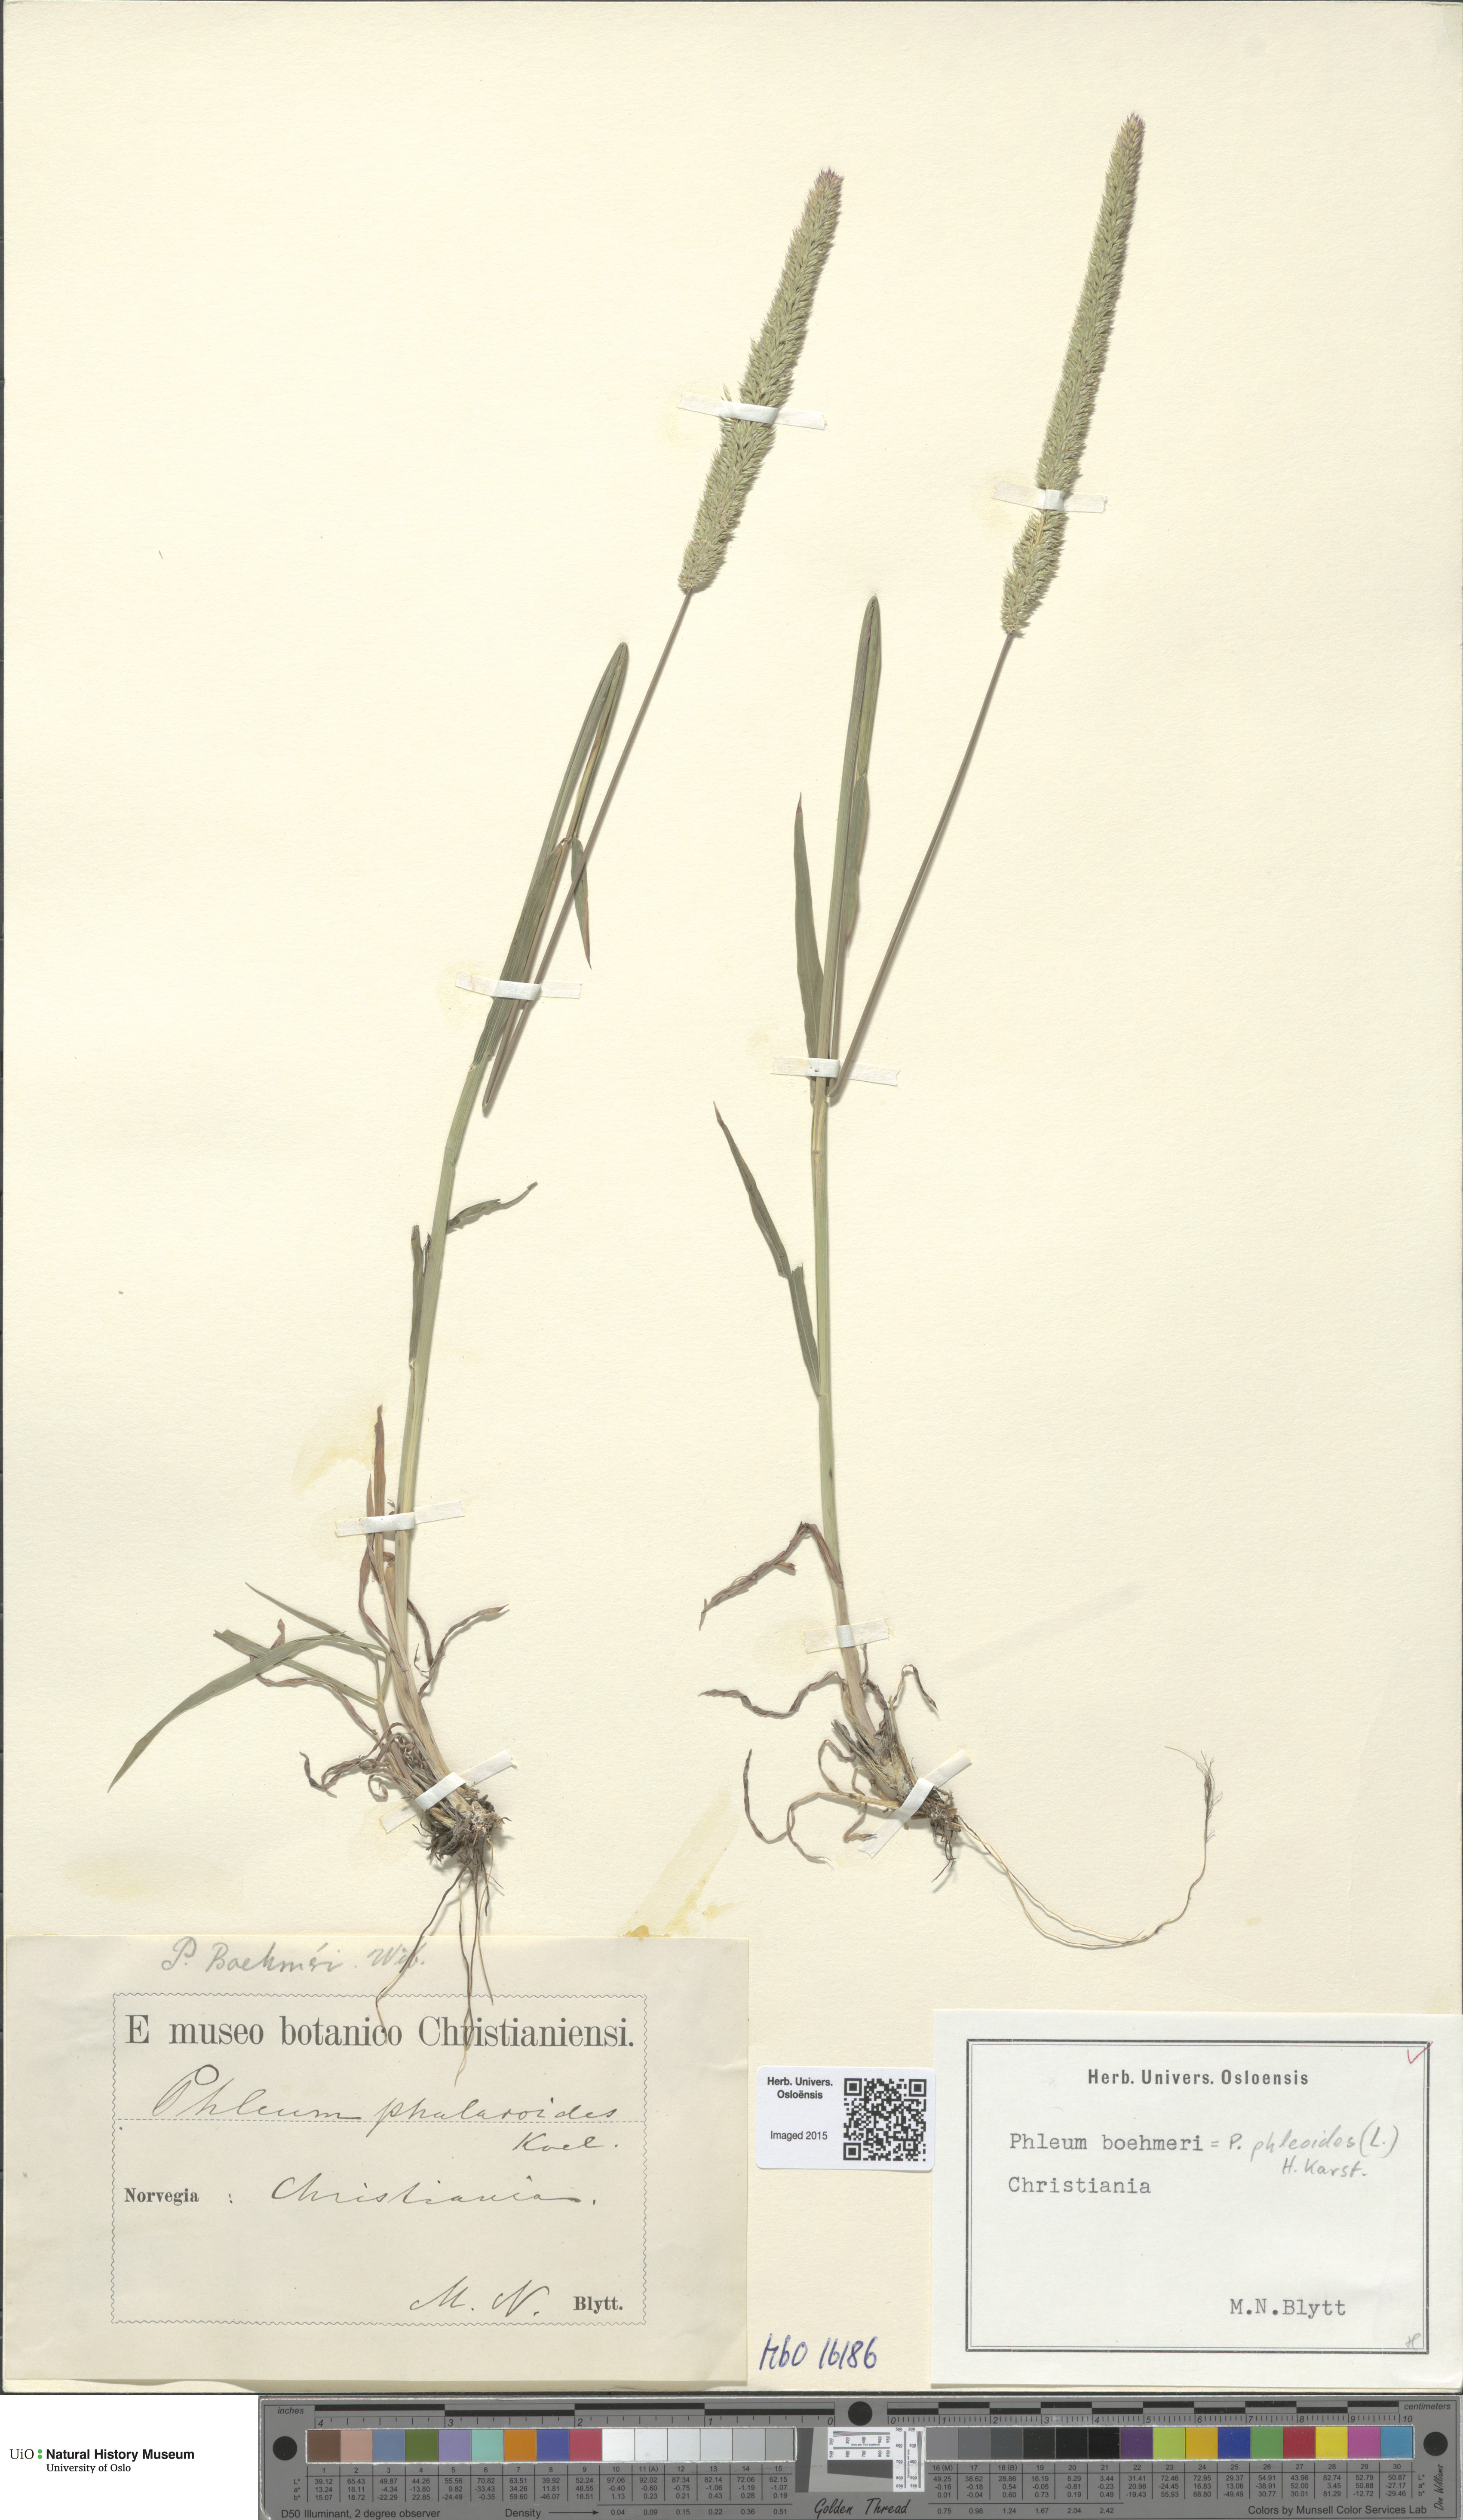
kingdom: Plantae
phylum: Tracheophyta
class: Liliopsida
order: Poales
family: Poaceae
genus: Phleum
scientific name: Phleum phleoides
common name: Purple-stem cat's-tail
